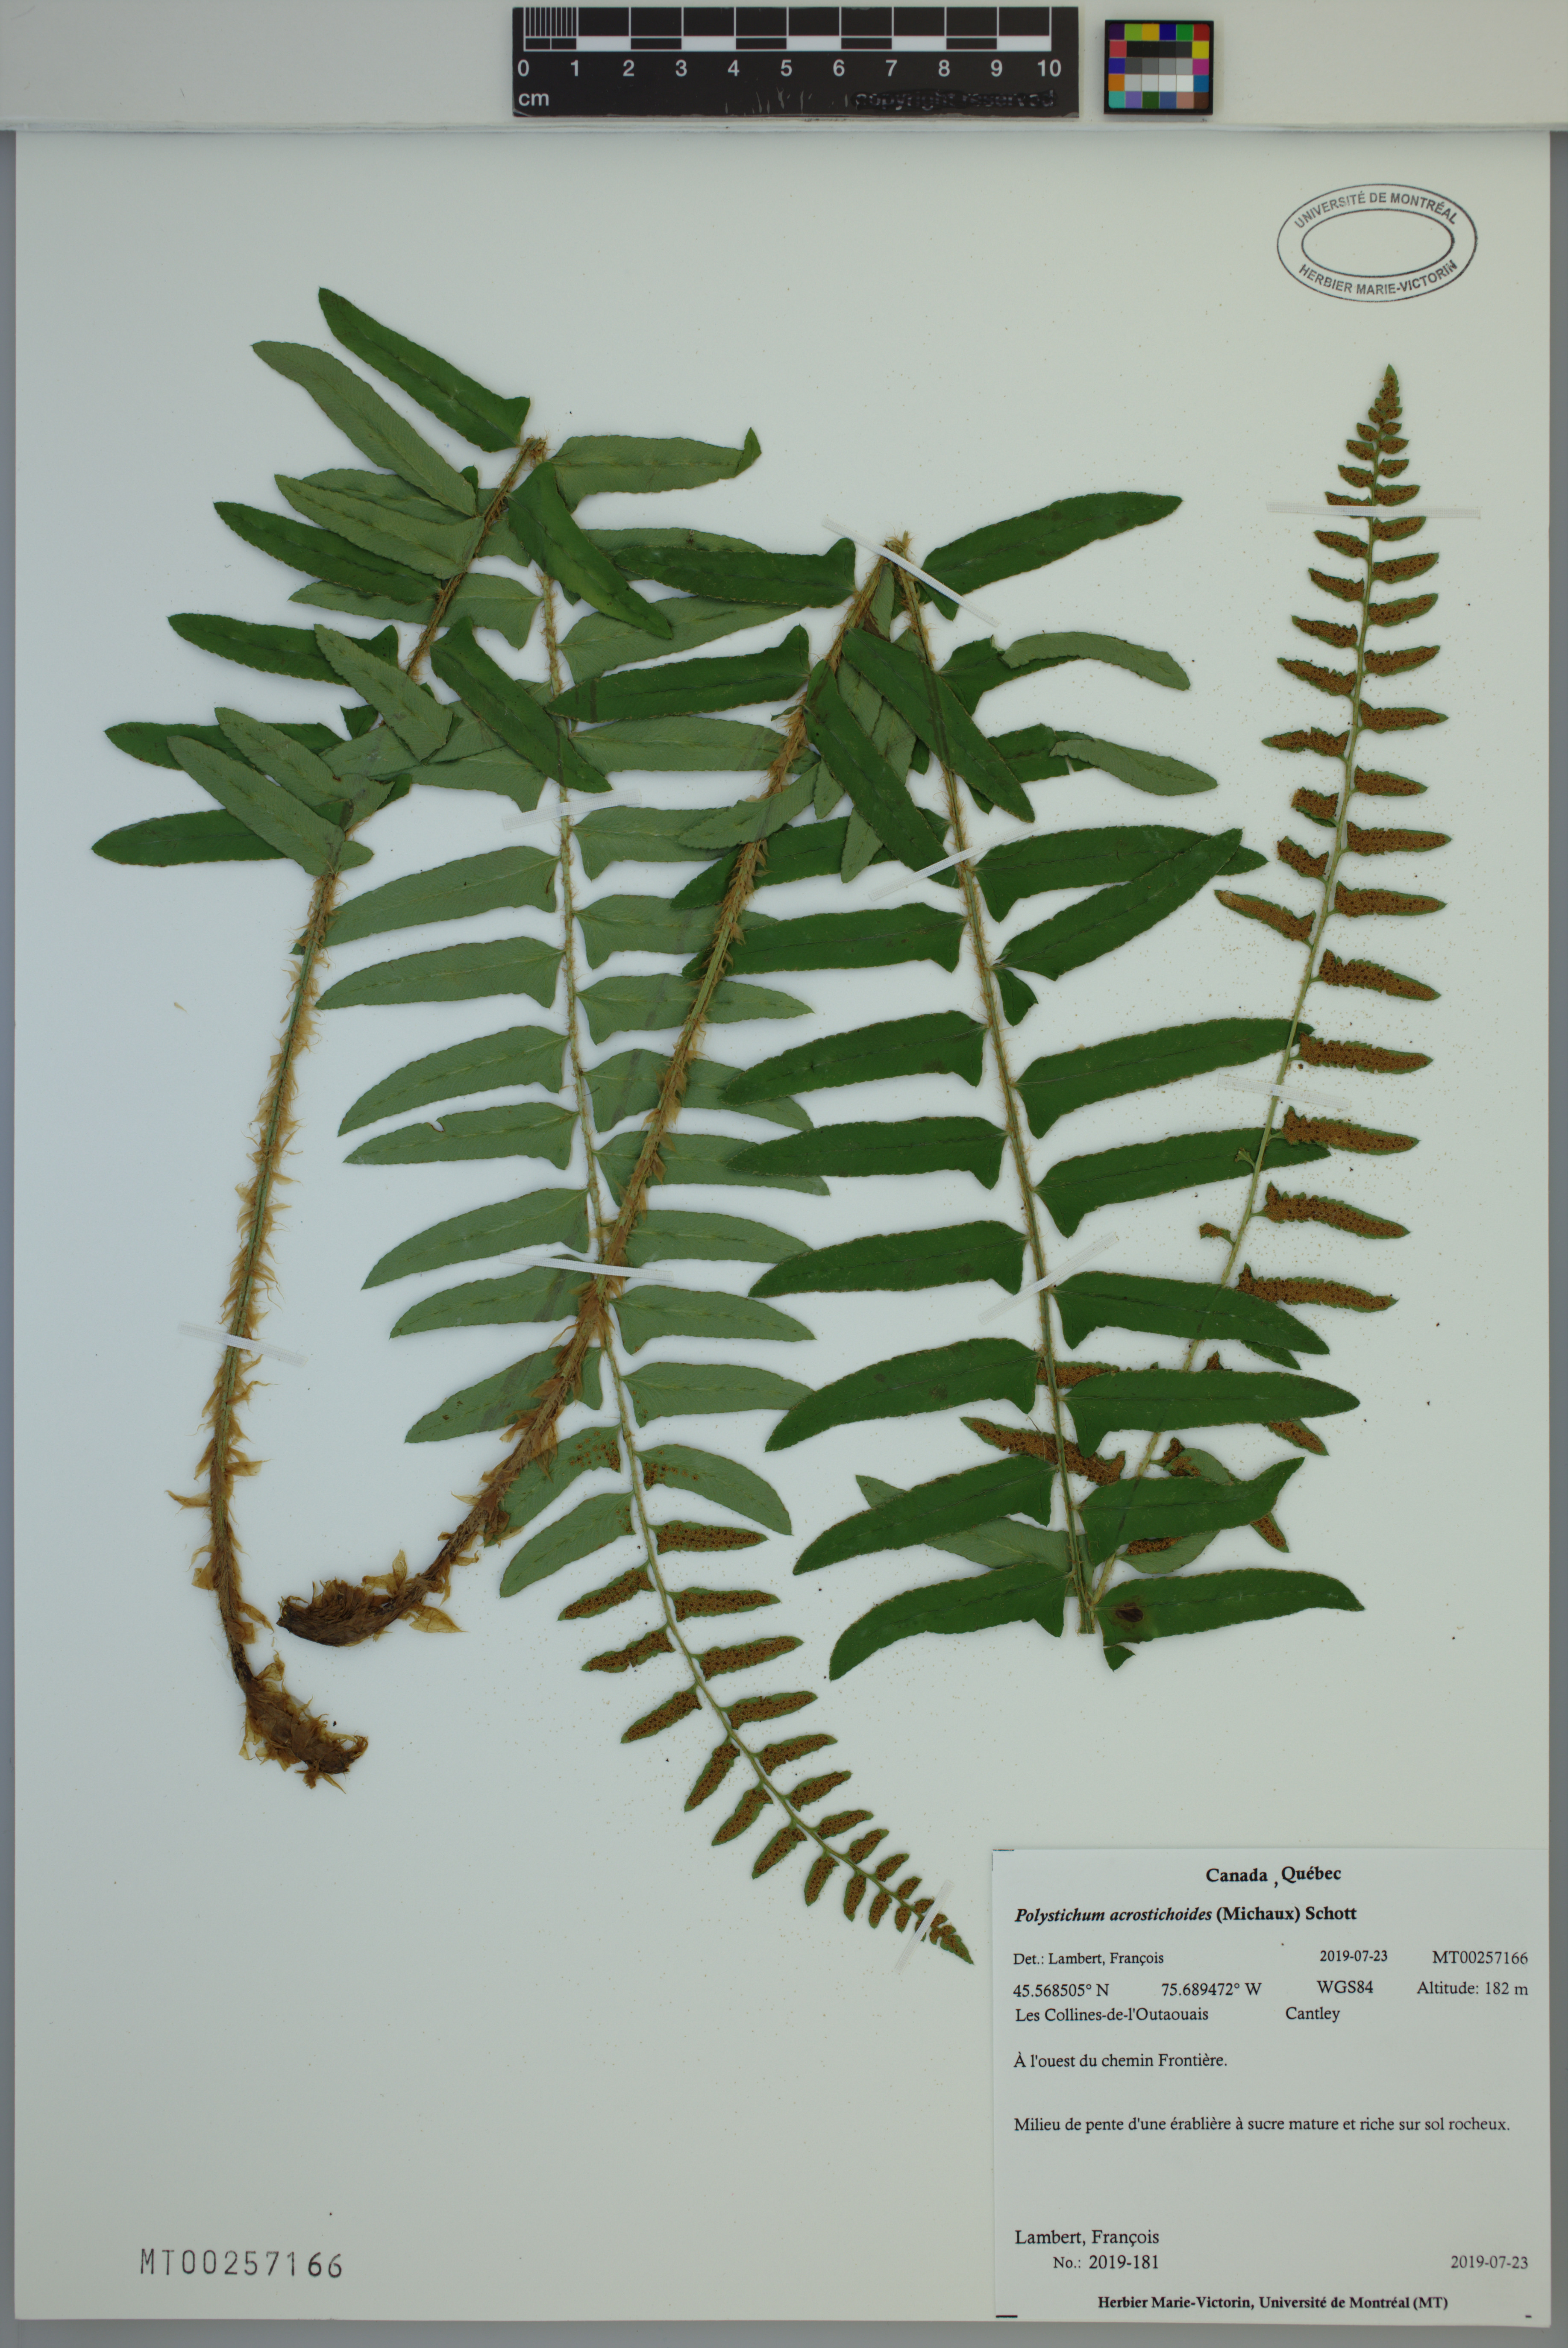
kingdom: Plantae
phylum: Tracheophyta
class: Polypodiopsida
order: Polypodiales
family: Dryopteridaceae
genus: Polystichum
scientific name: Polystichum acrostichoides
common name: Christmas fern
